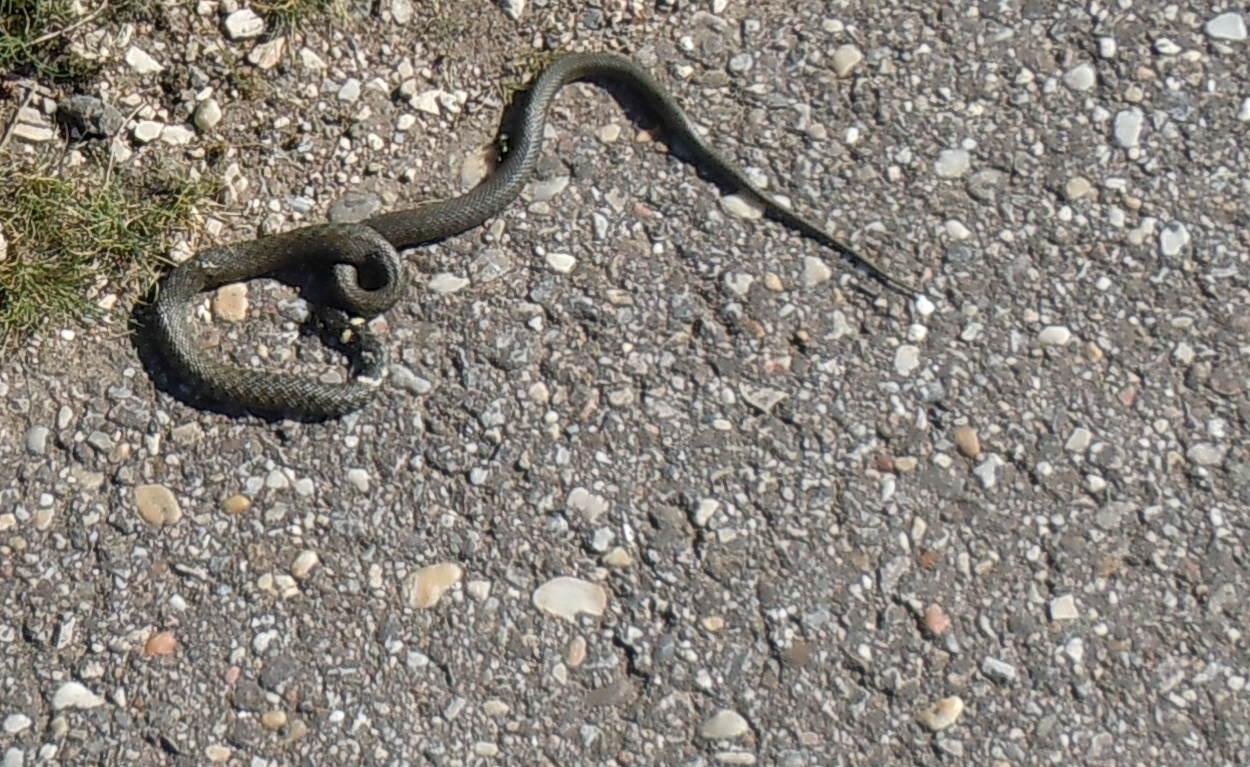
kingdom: Animalia
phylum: Chordata
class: Squamata
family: Colubridae
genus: Natrix
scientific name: Natrix natrix
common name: Grass snake
